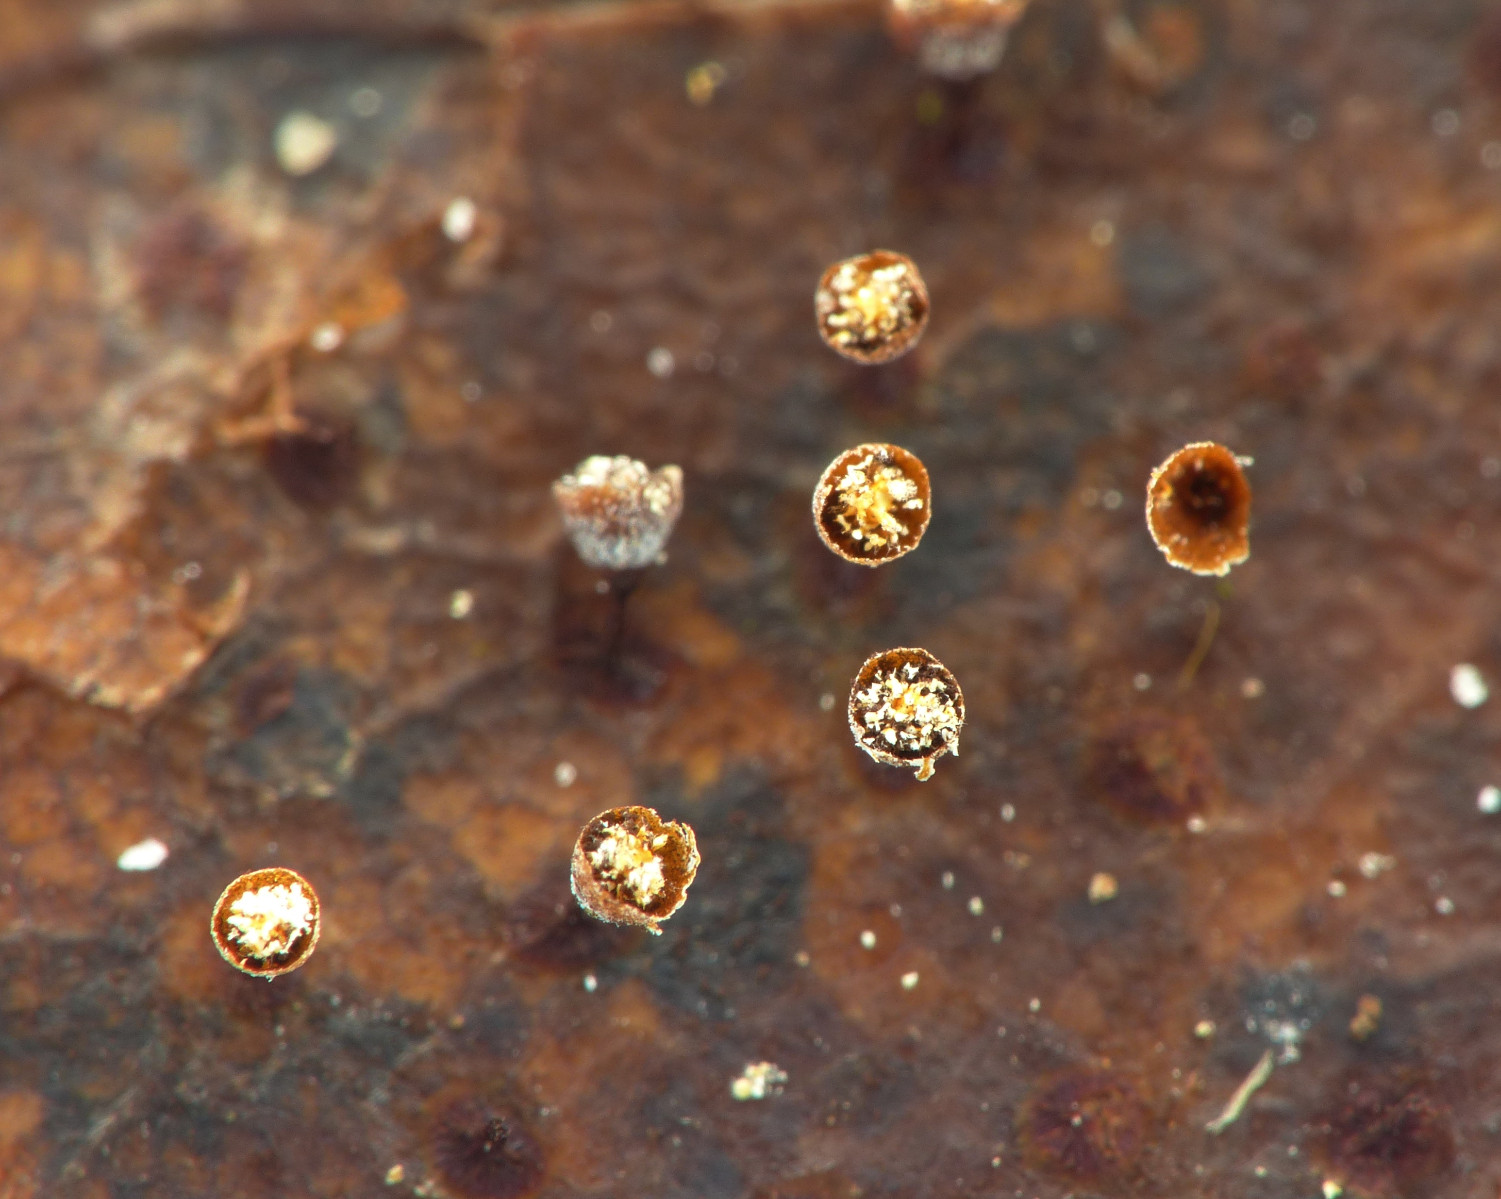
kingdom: Protozoa
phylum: Mycetozoa
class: Myxomycetes
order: Physarales
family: Physaraceae
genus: Craterium
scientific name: Craterium
